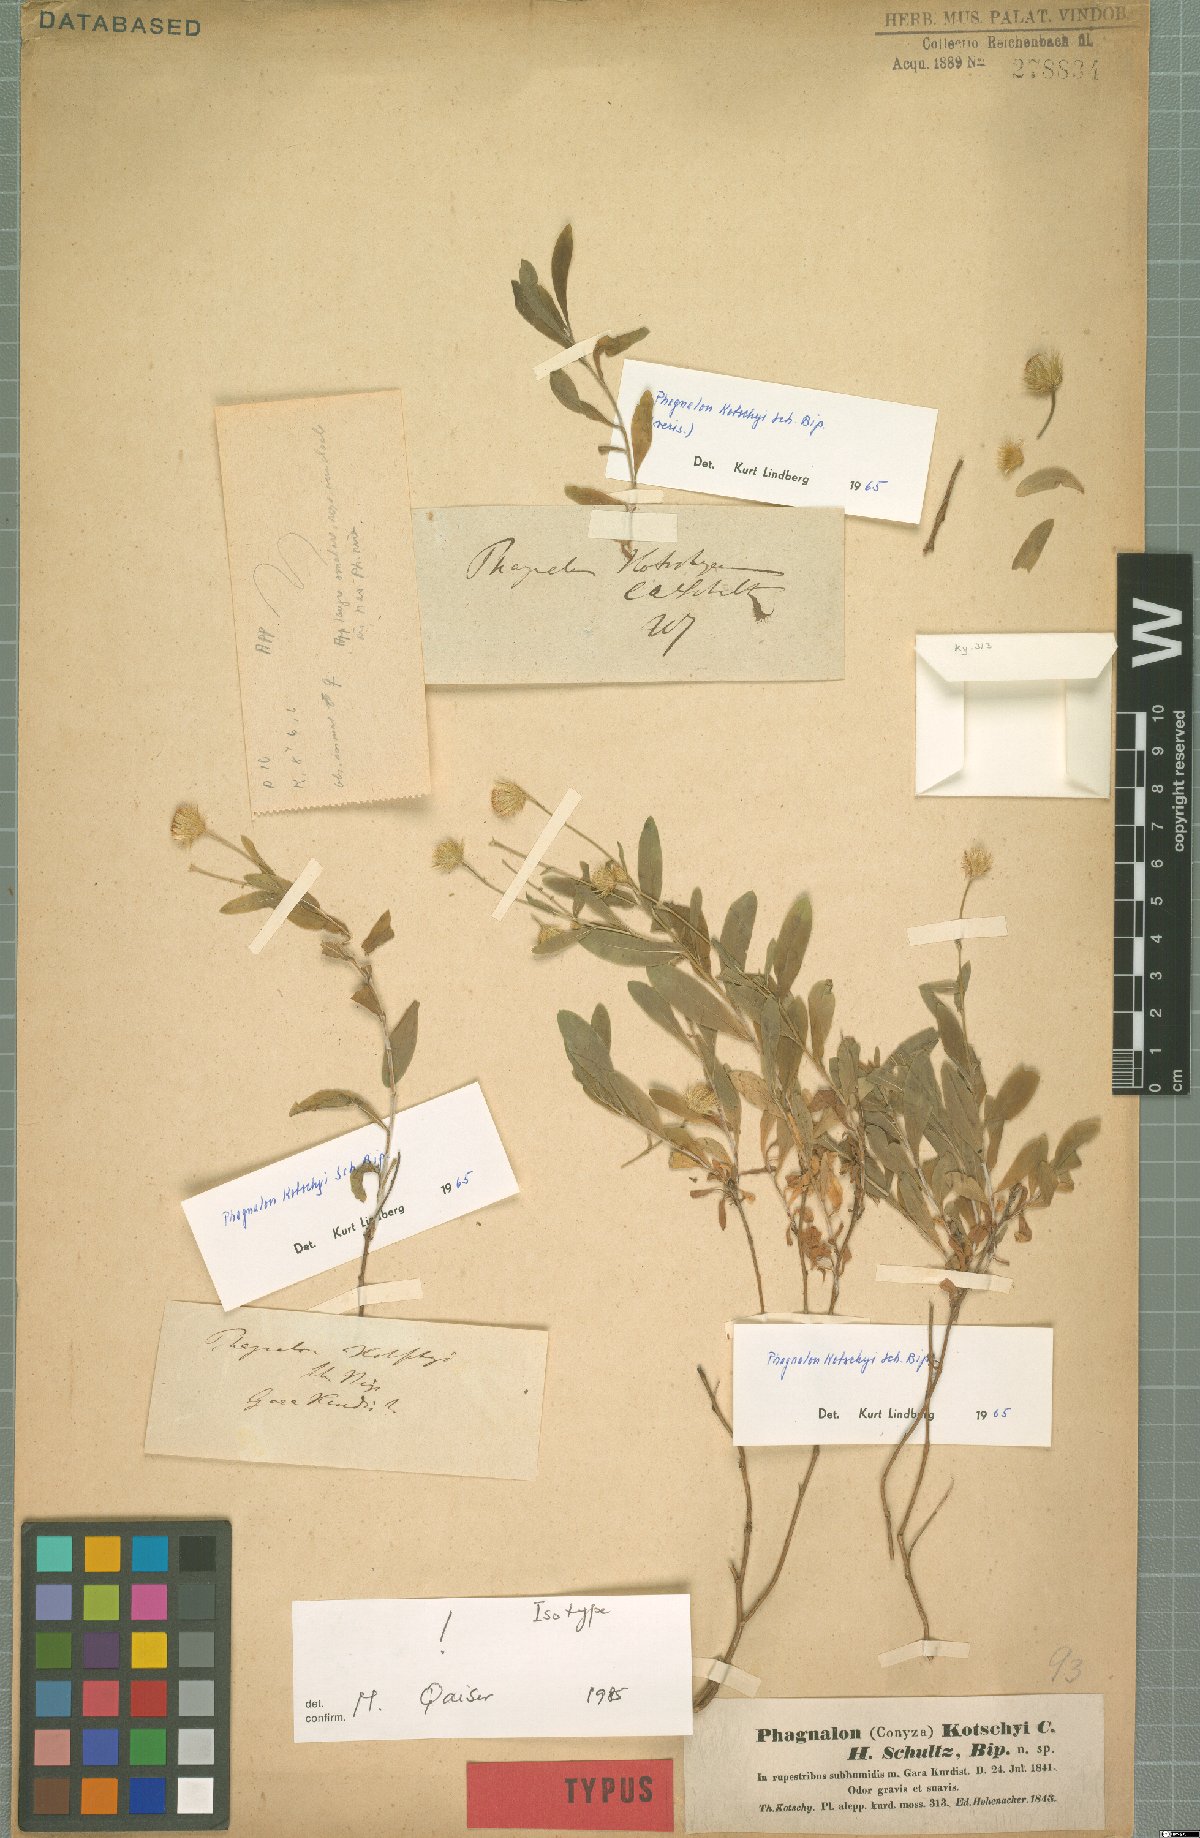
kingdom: Plantae
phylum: Tracheophyta
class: Magnoliopsida
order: Asterales
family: Asteraceae
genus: Phagnalon
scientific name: Phagnalon kotschyi
